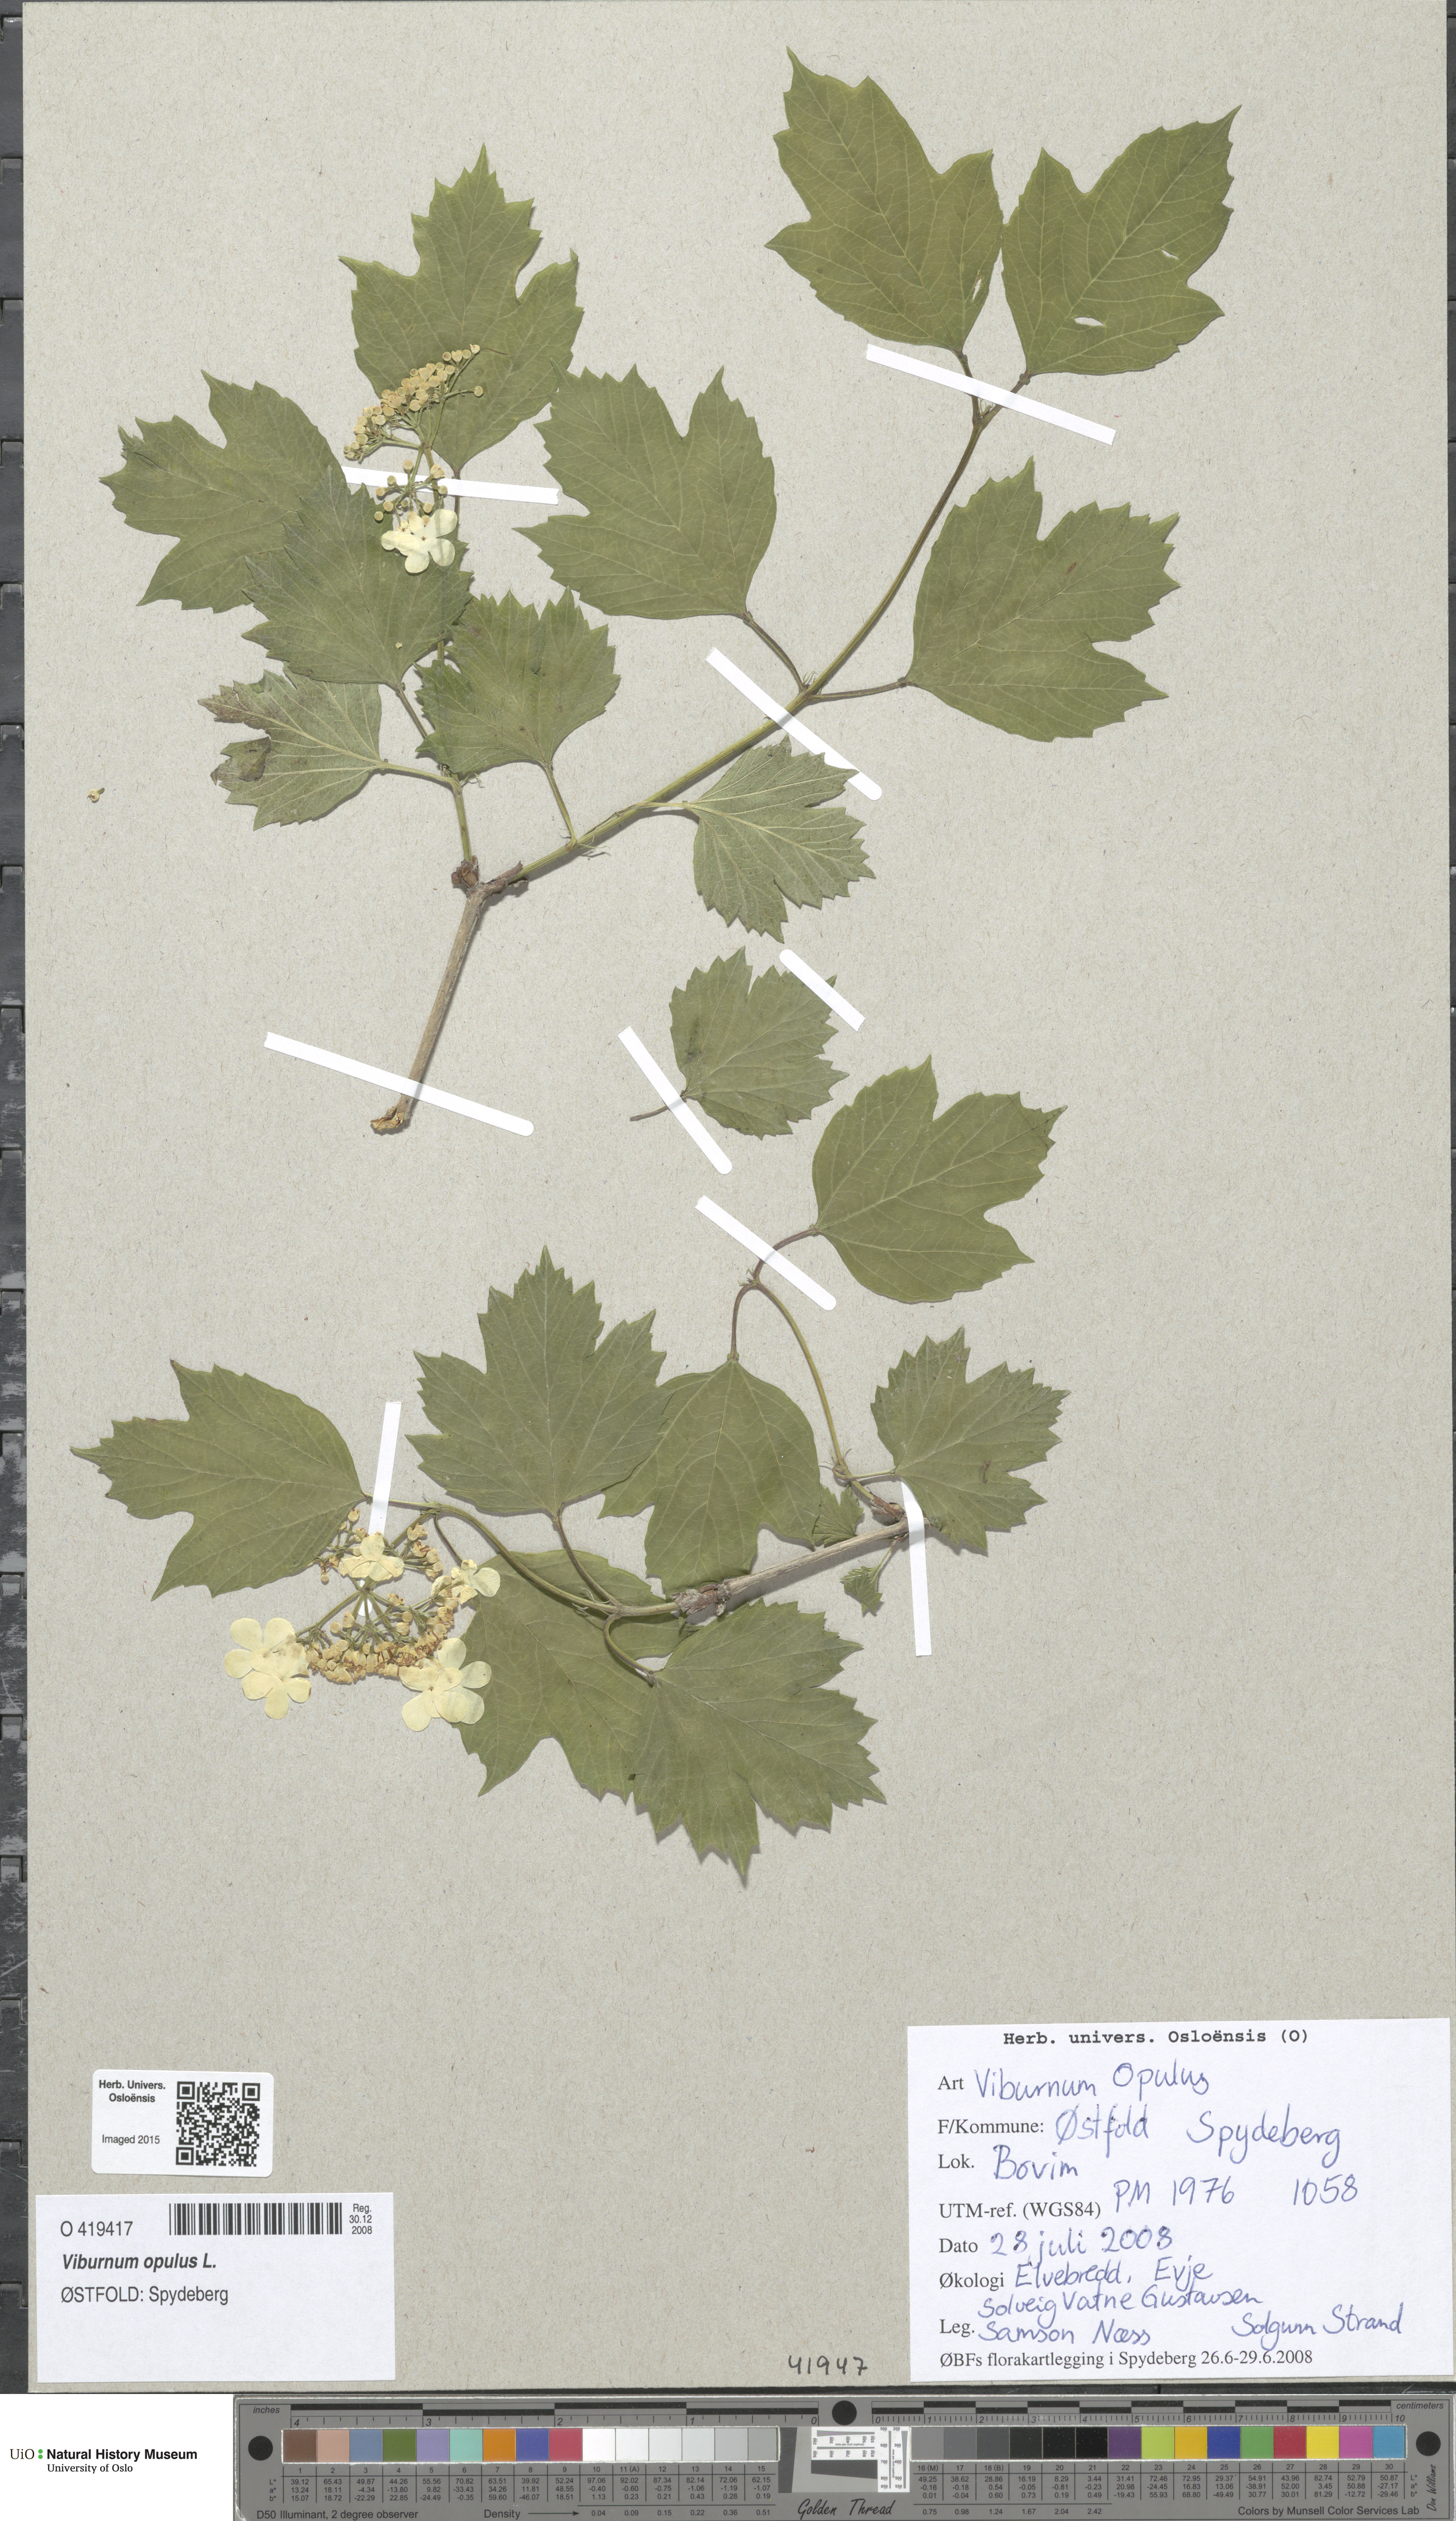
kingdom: Plantae
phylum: Tracheophyta
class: Magnoliopsida
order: Dipsacales
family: Viburnaceae
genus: Viburnum
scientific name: Viburnum opulus
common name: Guelder-rose
